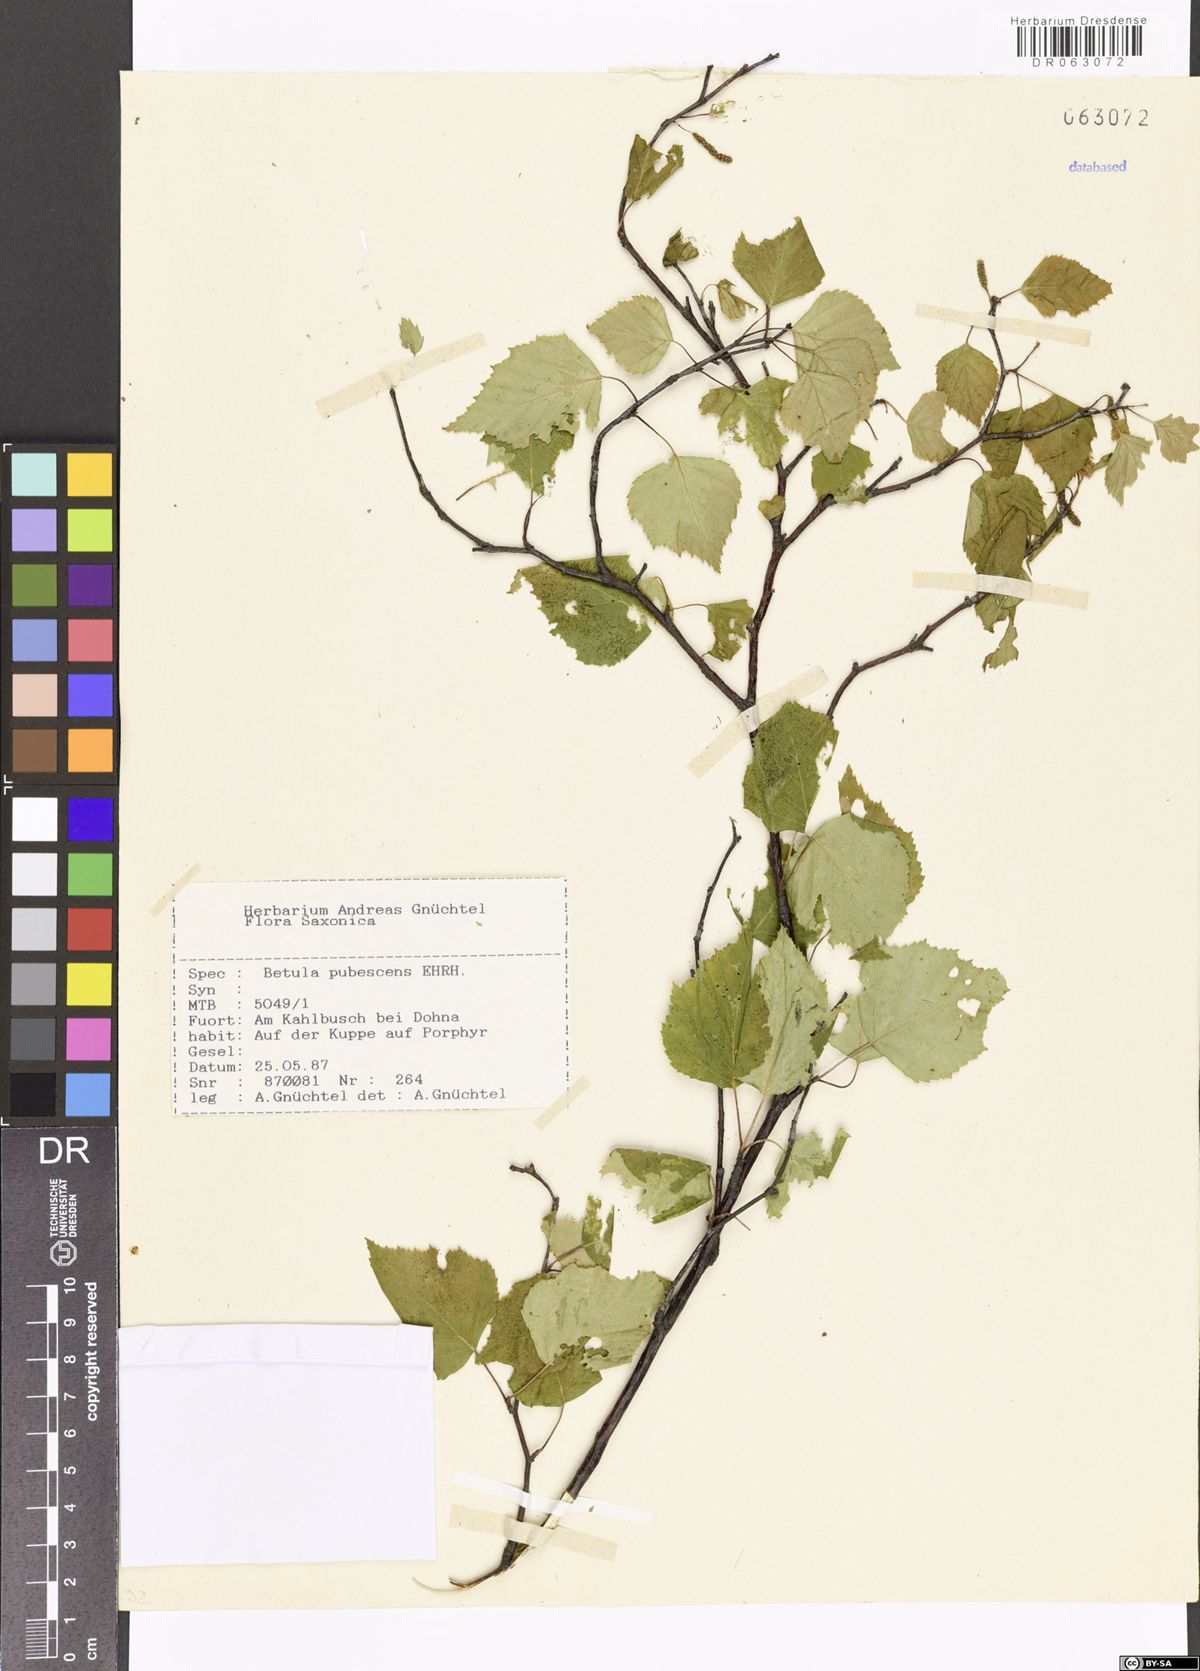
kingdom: Plantae
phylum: Tracheophyta
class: Magnoliopsida
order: Fagales
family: Betulaceae
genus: Betula
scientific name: Betula
